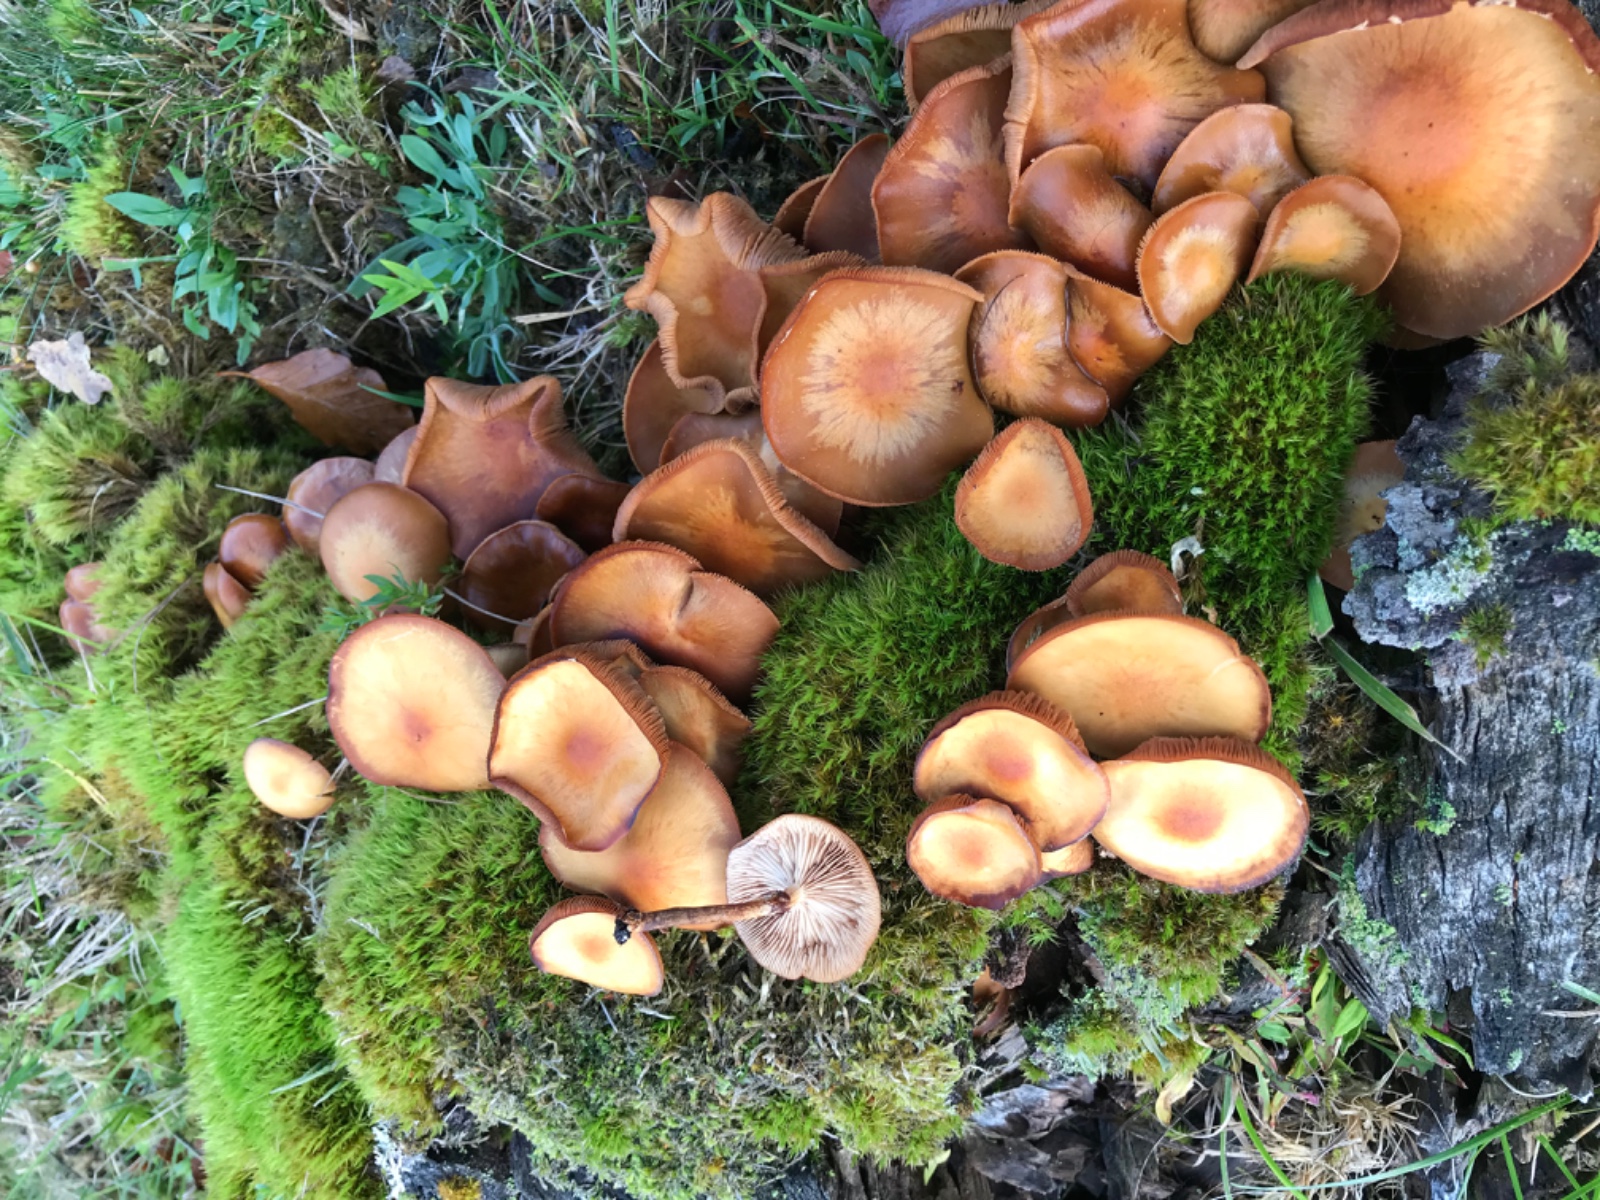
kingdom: Fungi
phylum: Basidiomycota
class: Agaricomycetes
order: Agaricales
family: Strophariaceae
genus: Kuehneromyces
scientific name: Kuehneromyces mutabilis
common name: foranderlig skælhat
